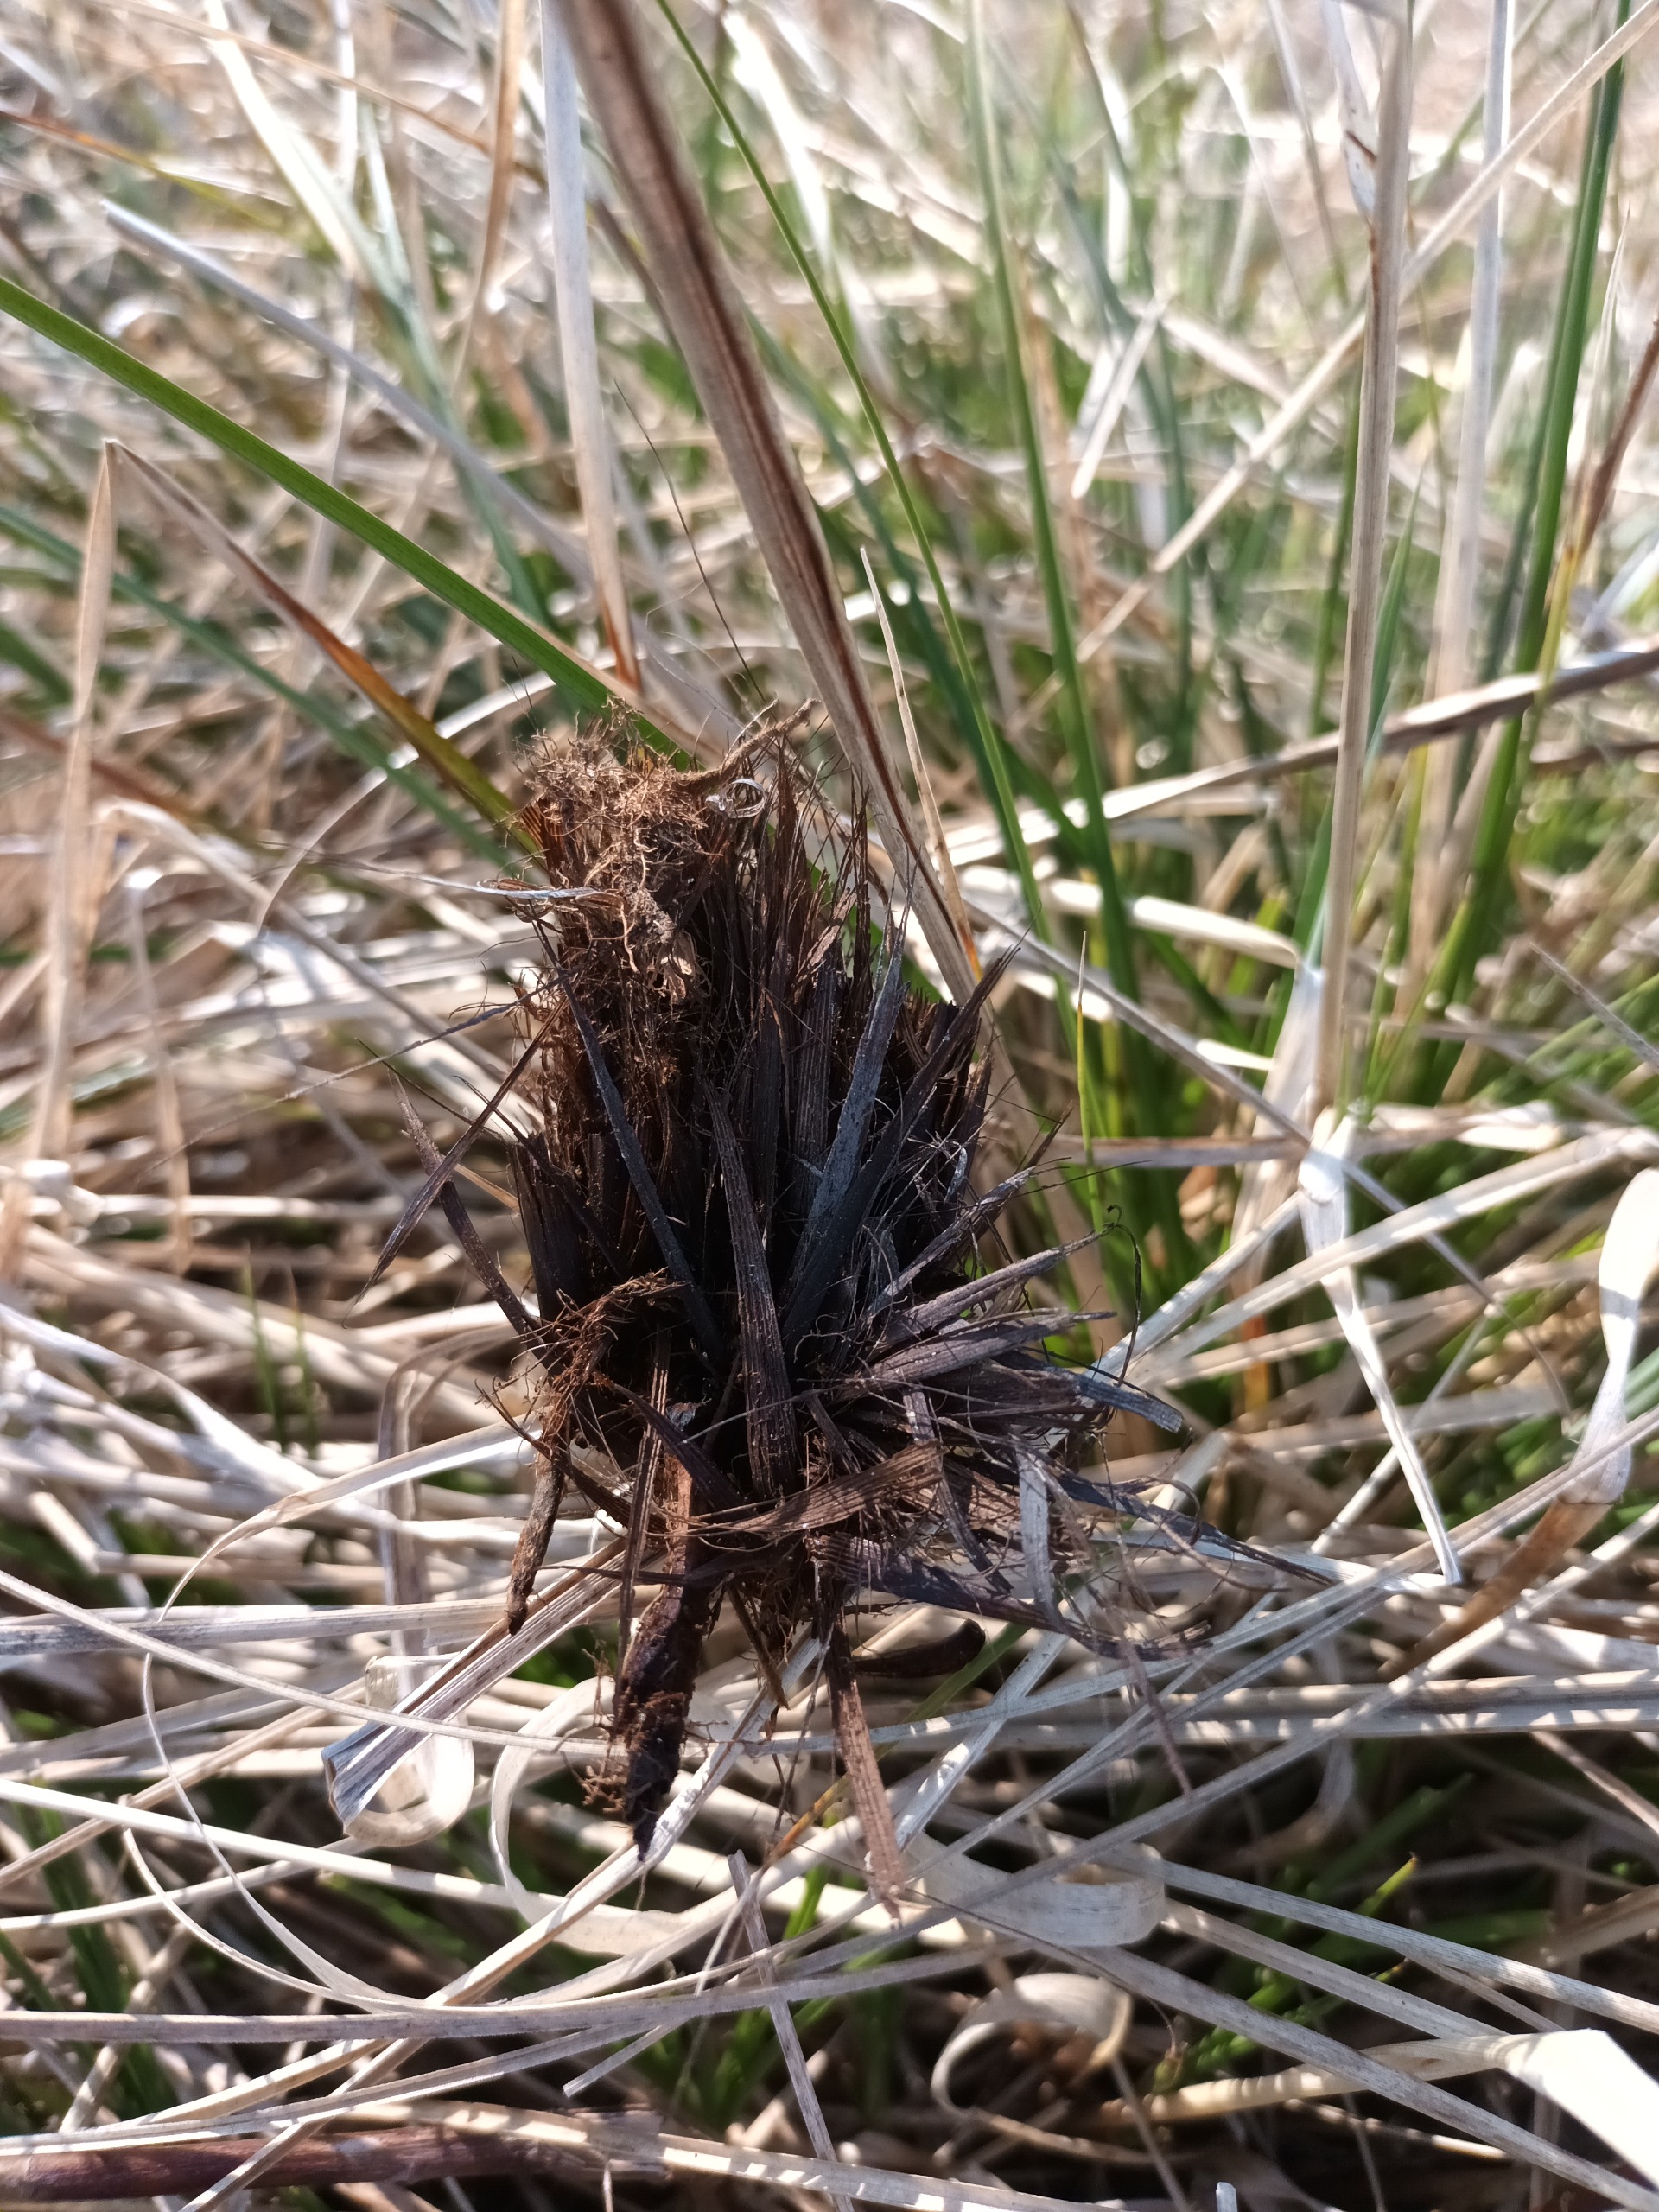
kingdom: Plantae
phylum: Tracheophyta
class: Liliopsida
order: Poales
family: Cyperaceae
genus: Carex
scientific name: Carex appropinquata
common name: Langakset star
